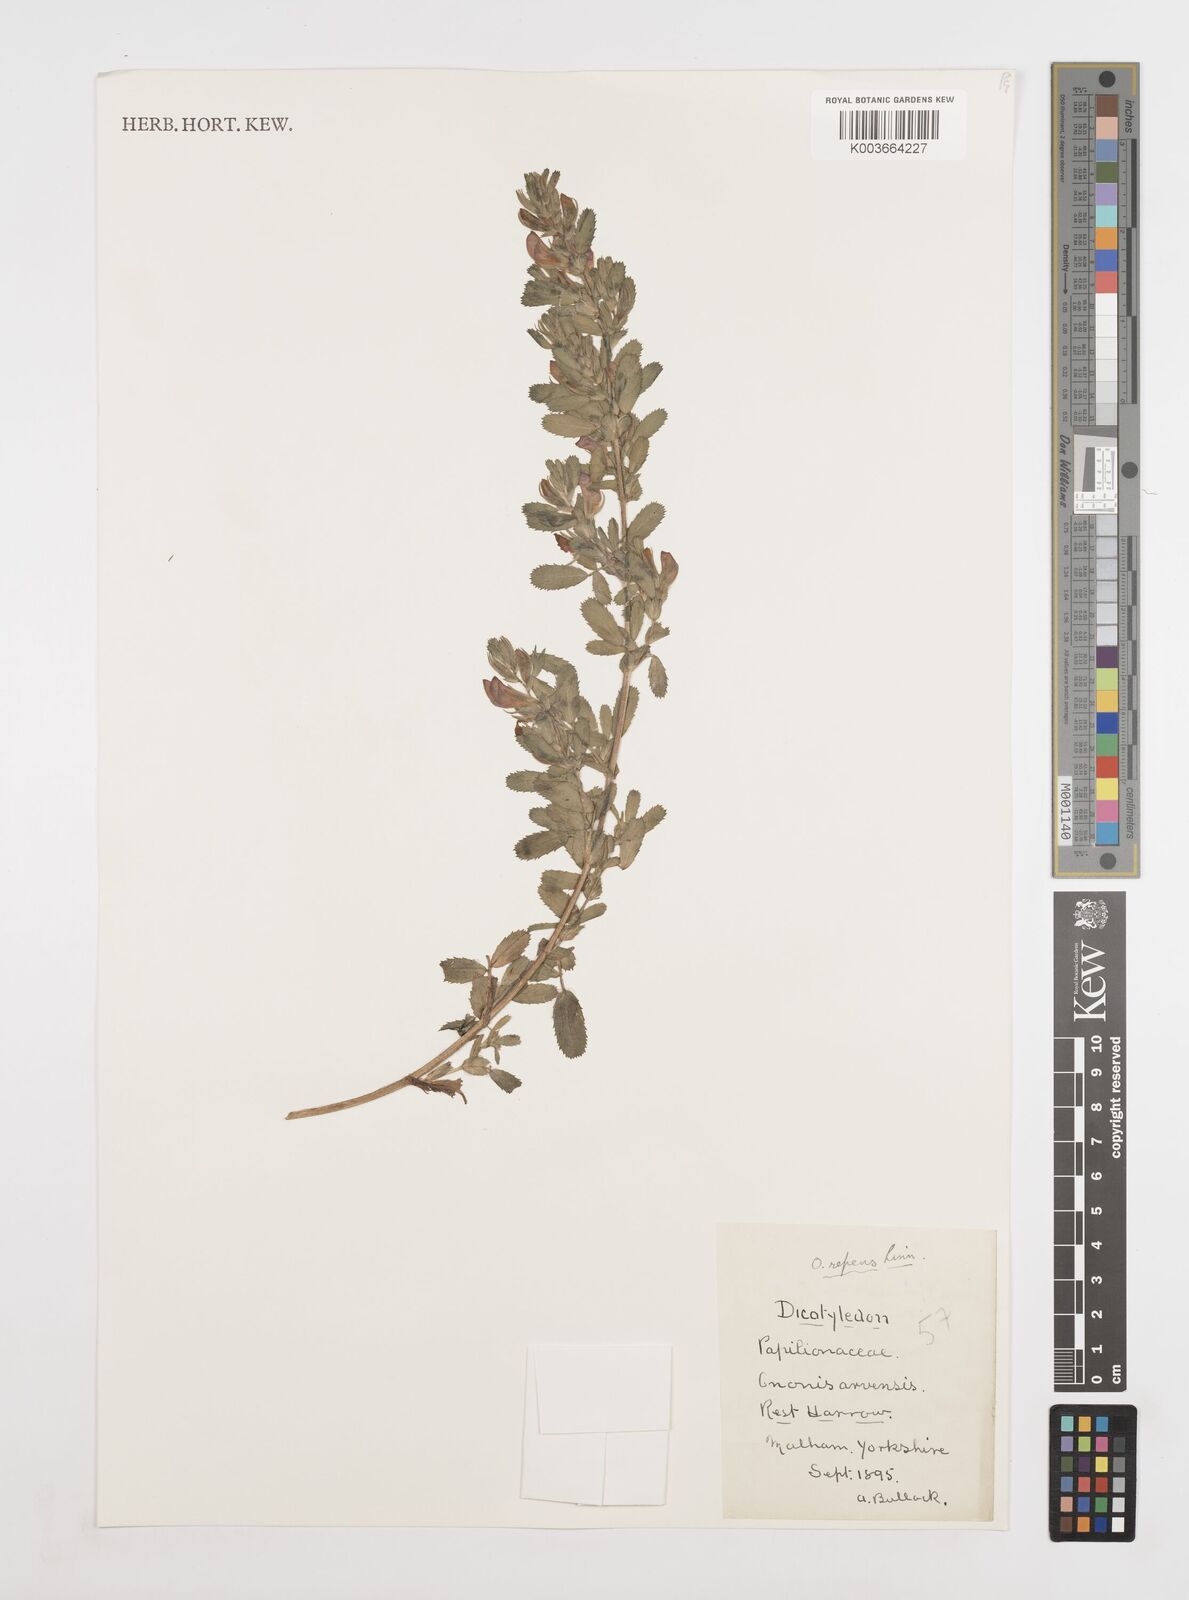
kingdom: Plantae
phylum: Tracheophyta
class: Magnoliopsida
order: Fabales
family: Fabaceae
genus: Ononis
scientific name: Ononis spinosa
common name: Spiny restharrow
